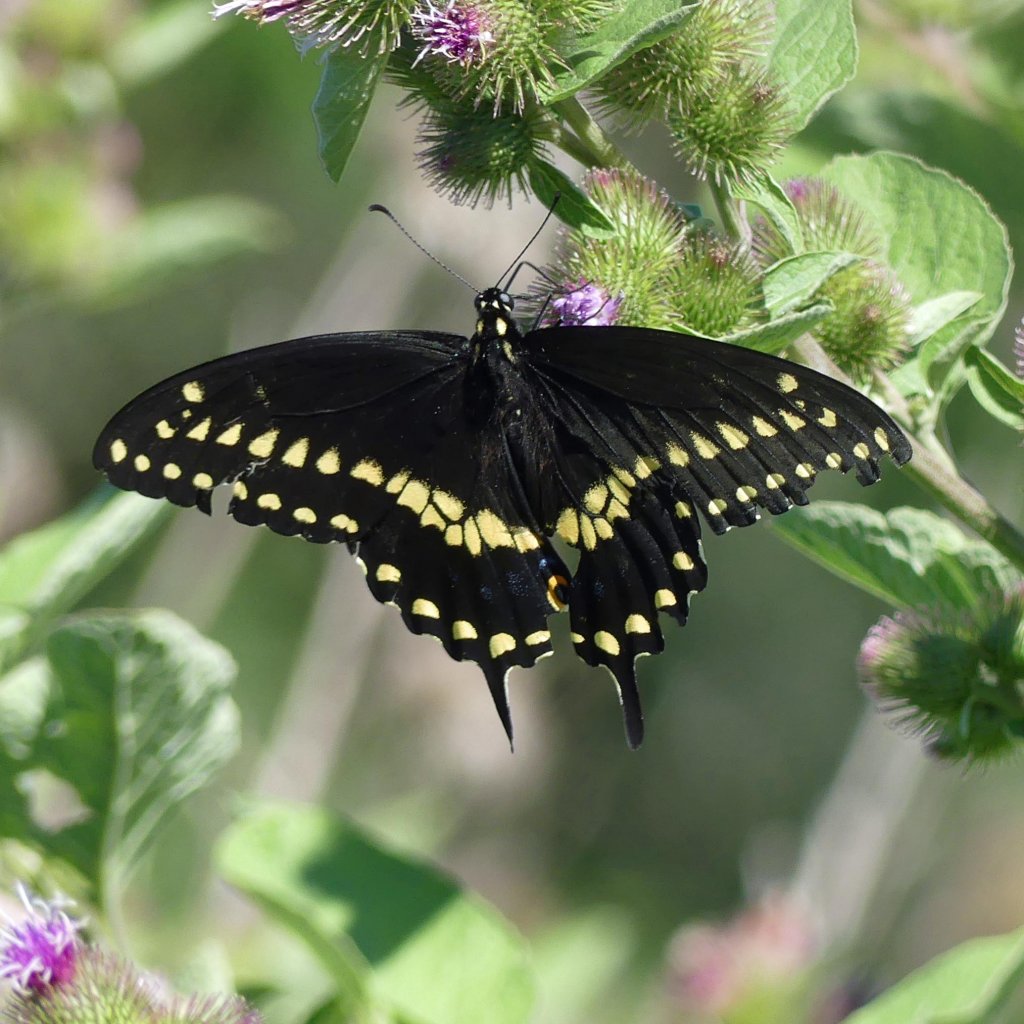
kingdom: Animalia
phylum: Arthropoda
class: Insecta
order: Lepidoptera
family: Papilionidae
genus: Papilio
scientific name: Papilio polyxenes
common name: Black Swallowtail
